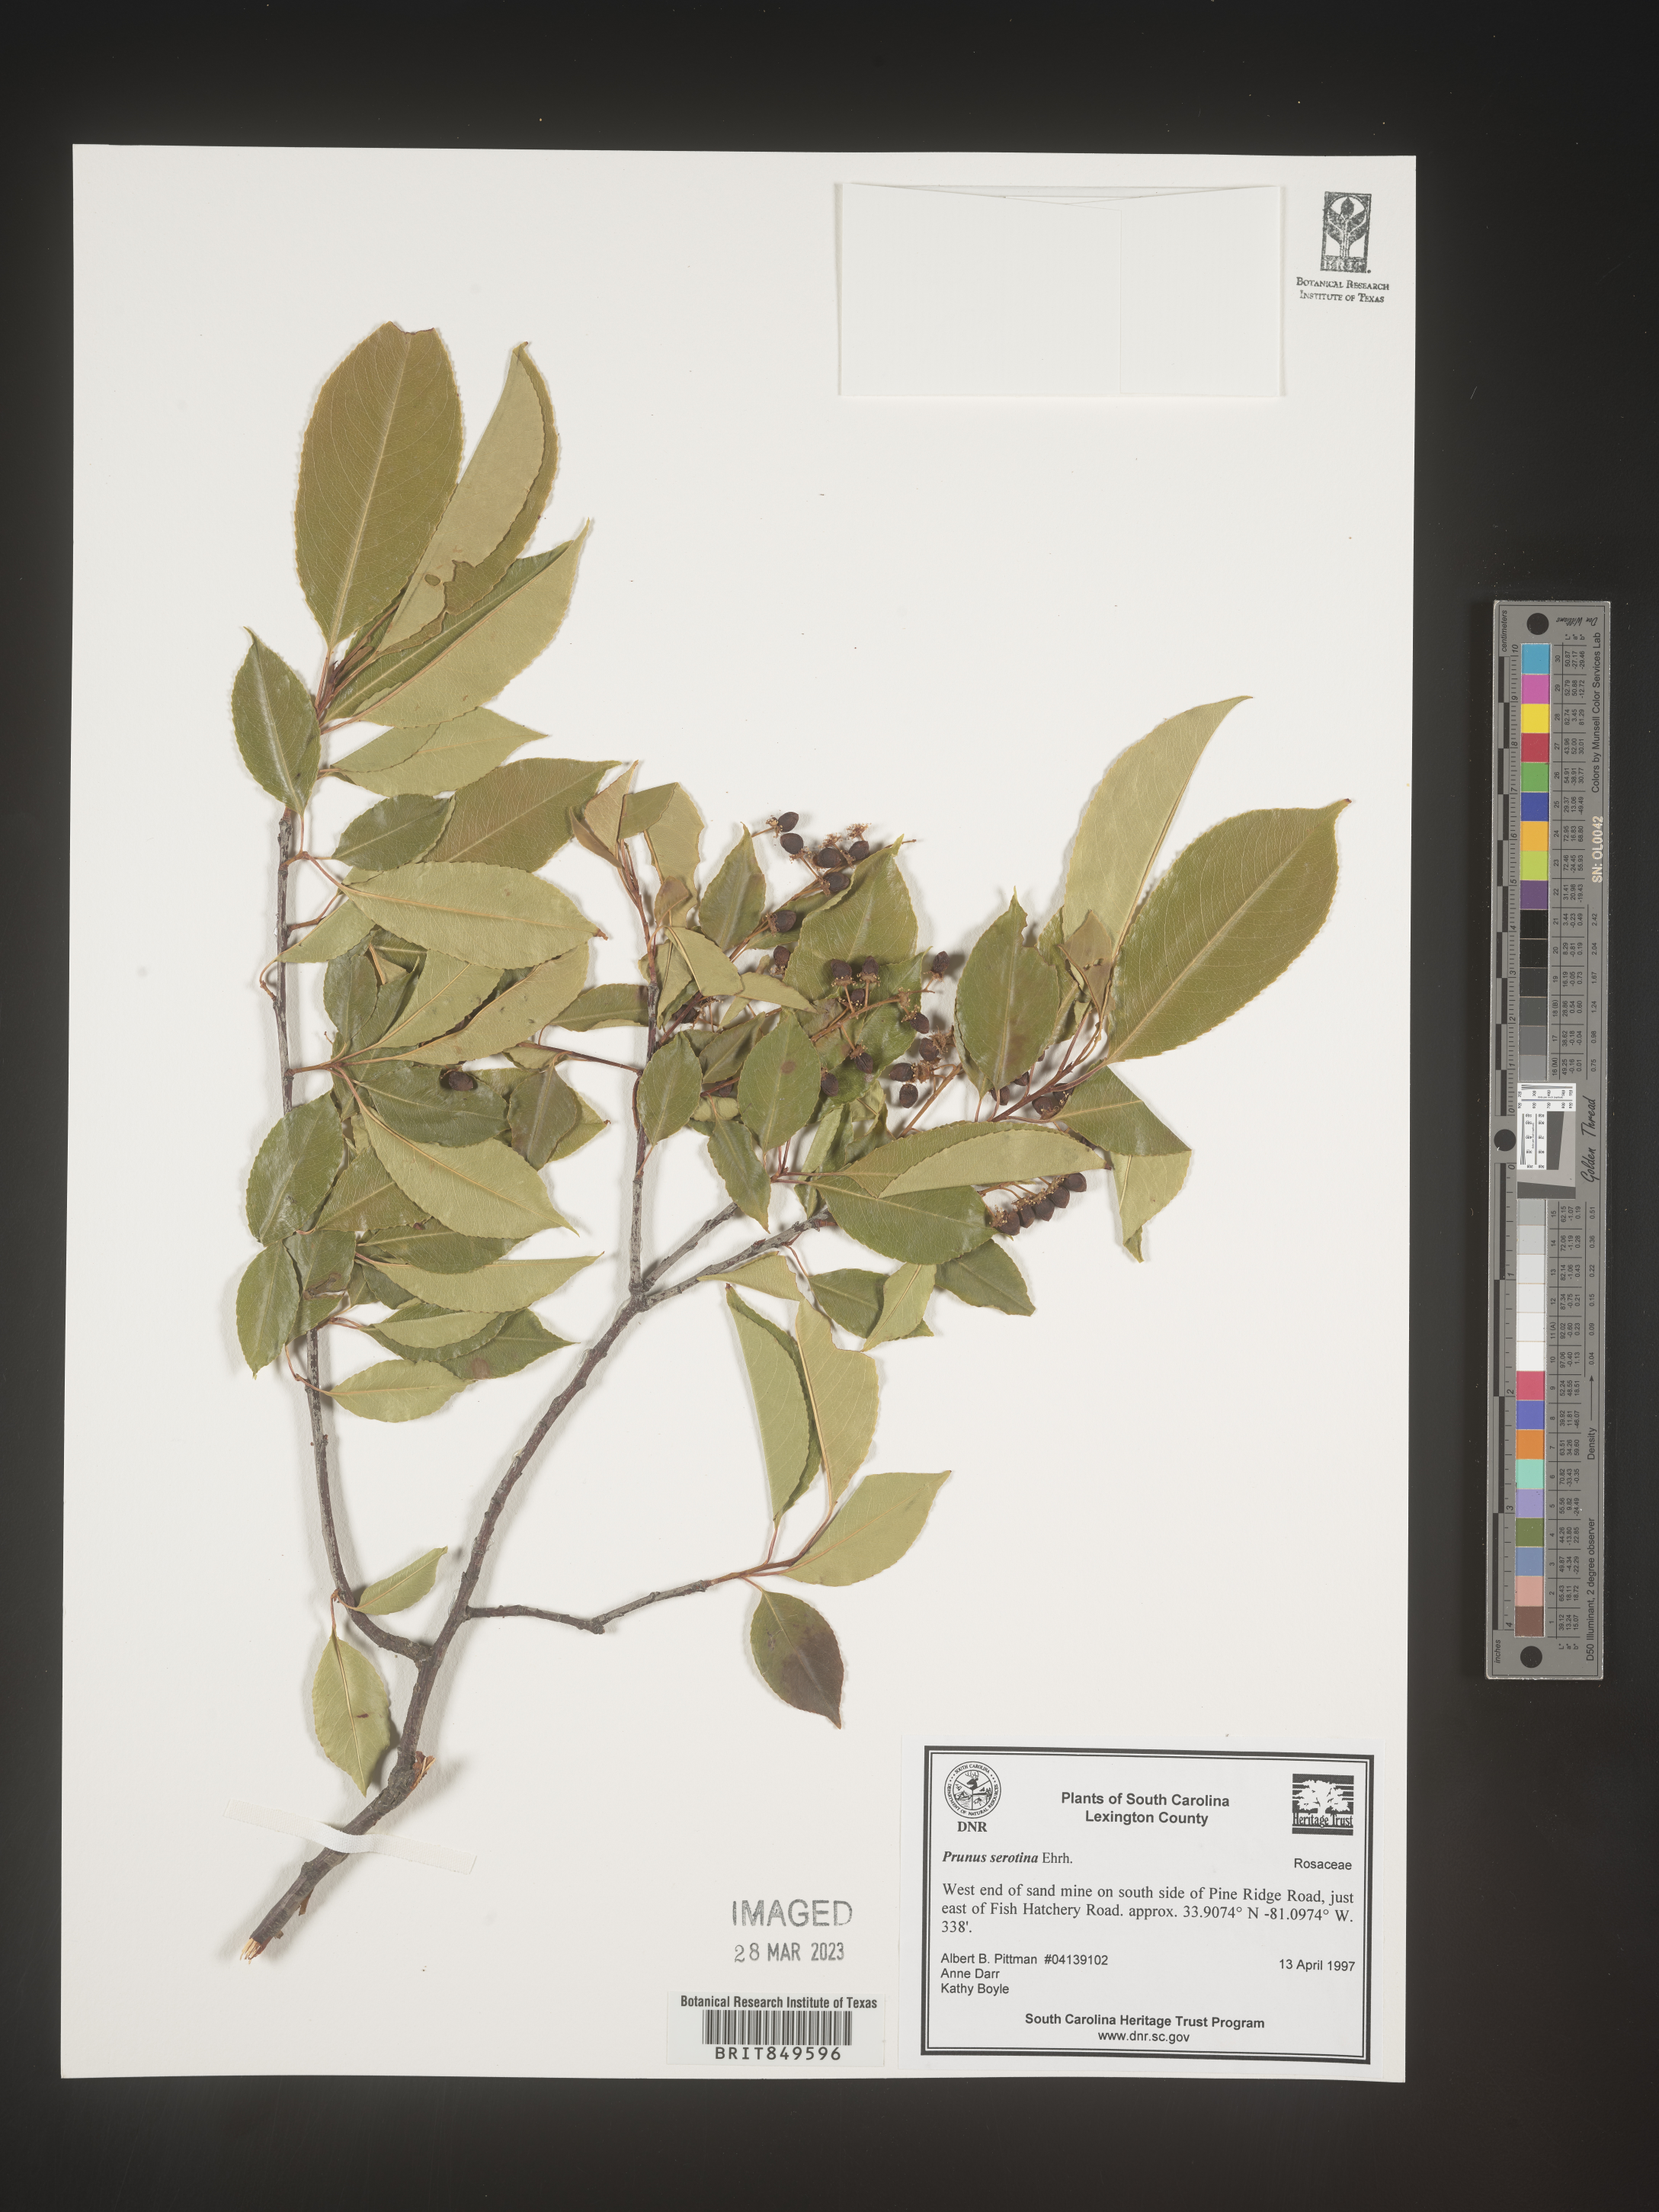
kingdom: Plantae
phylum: Tracheophyta
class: Magnoliopsida
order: Rosales
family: Rosaceae
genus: Prunus
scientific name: Prunus serotina
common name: Black cherry
